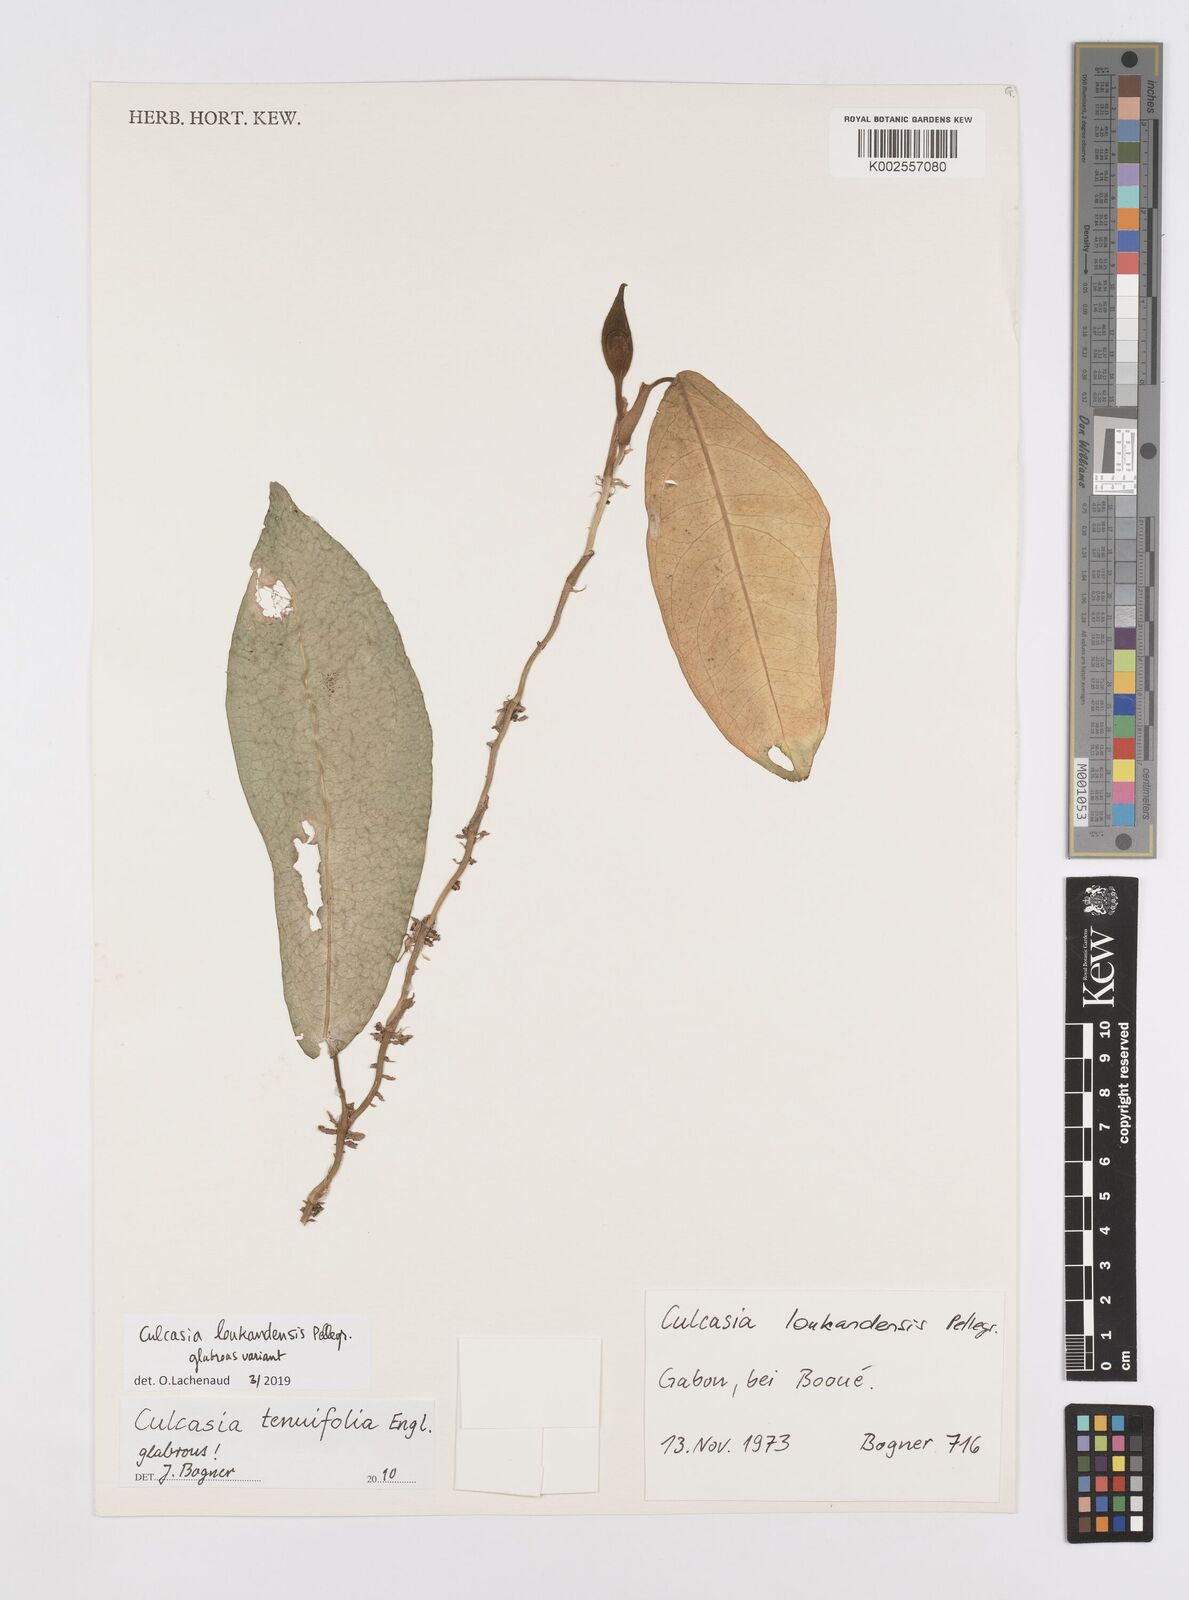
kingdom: Plantae
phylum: Tracheophyta
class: Liliopsida
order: Alismatales
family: Araceae
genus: Culcasia
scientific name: Culcasia loukandensis
